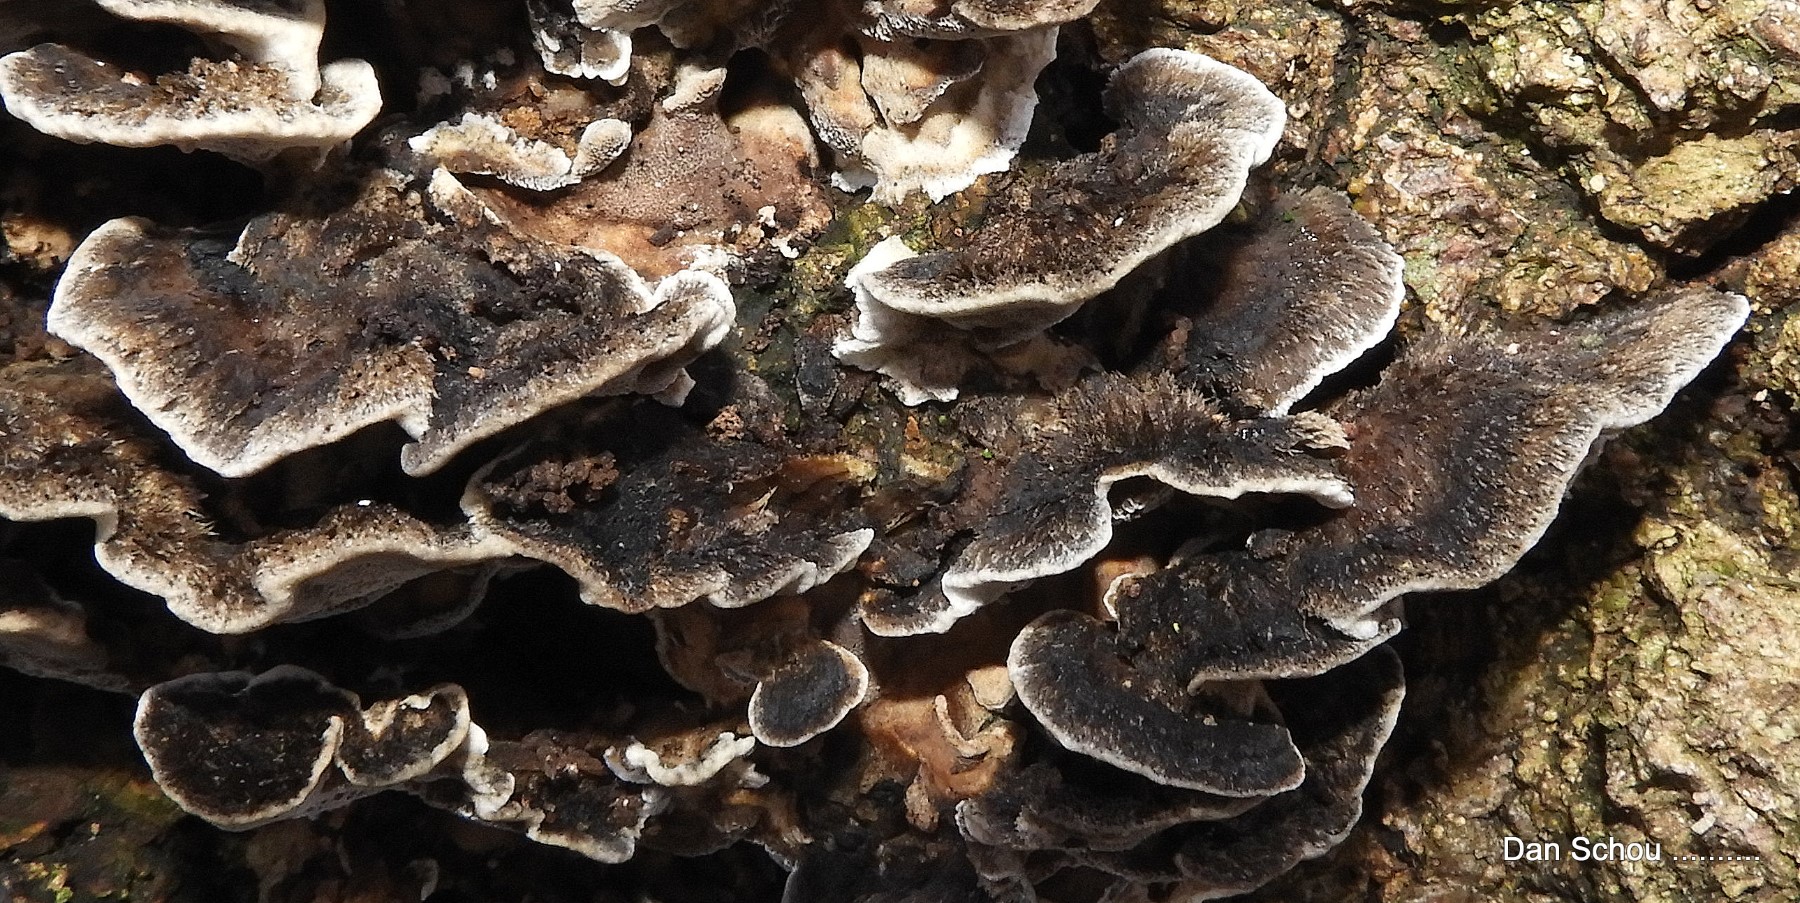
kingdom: Fungi
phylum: Basidiomycota
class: Agaricomycetes
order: Polyporales
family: Phanerochaetaceae
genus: Bjerkandera
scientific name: Bjerkandera adusta
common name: sveden sodporesvamp
